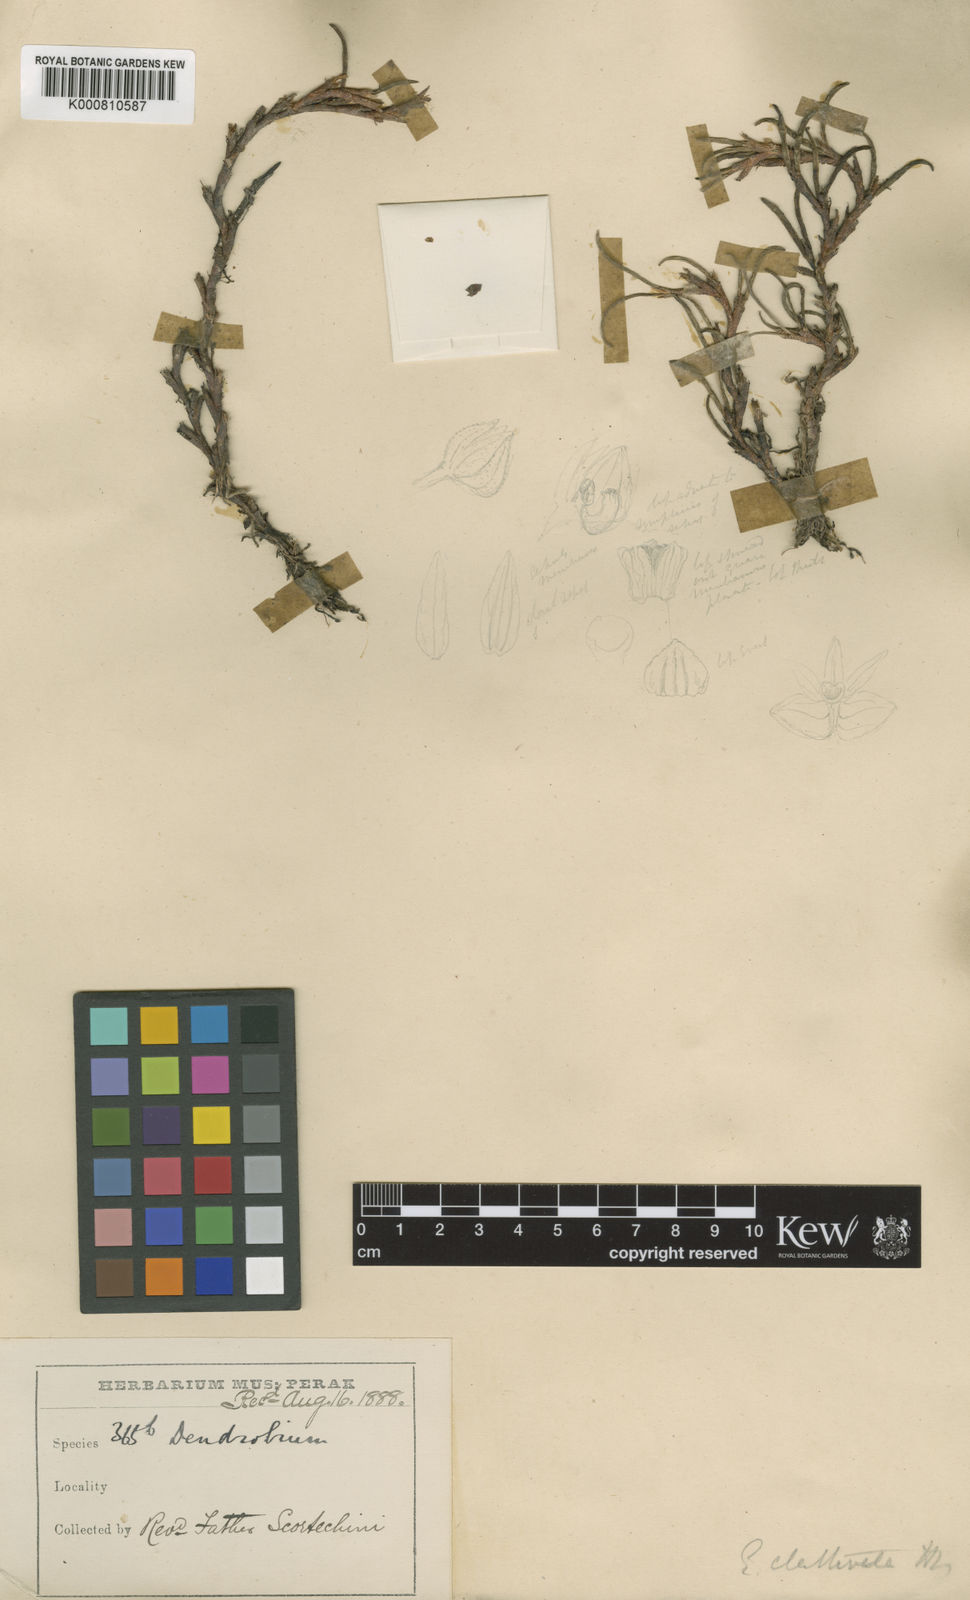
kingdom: Plantae
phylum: Tracheophyta
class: Liliopsida
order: Asparagales
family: Orchidaceae
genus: Ceratostylis
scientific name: Ceratostylis clathrata
